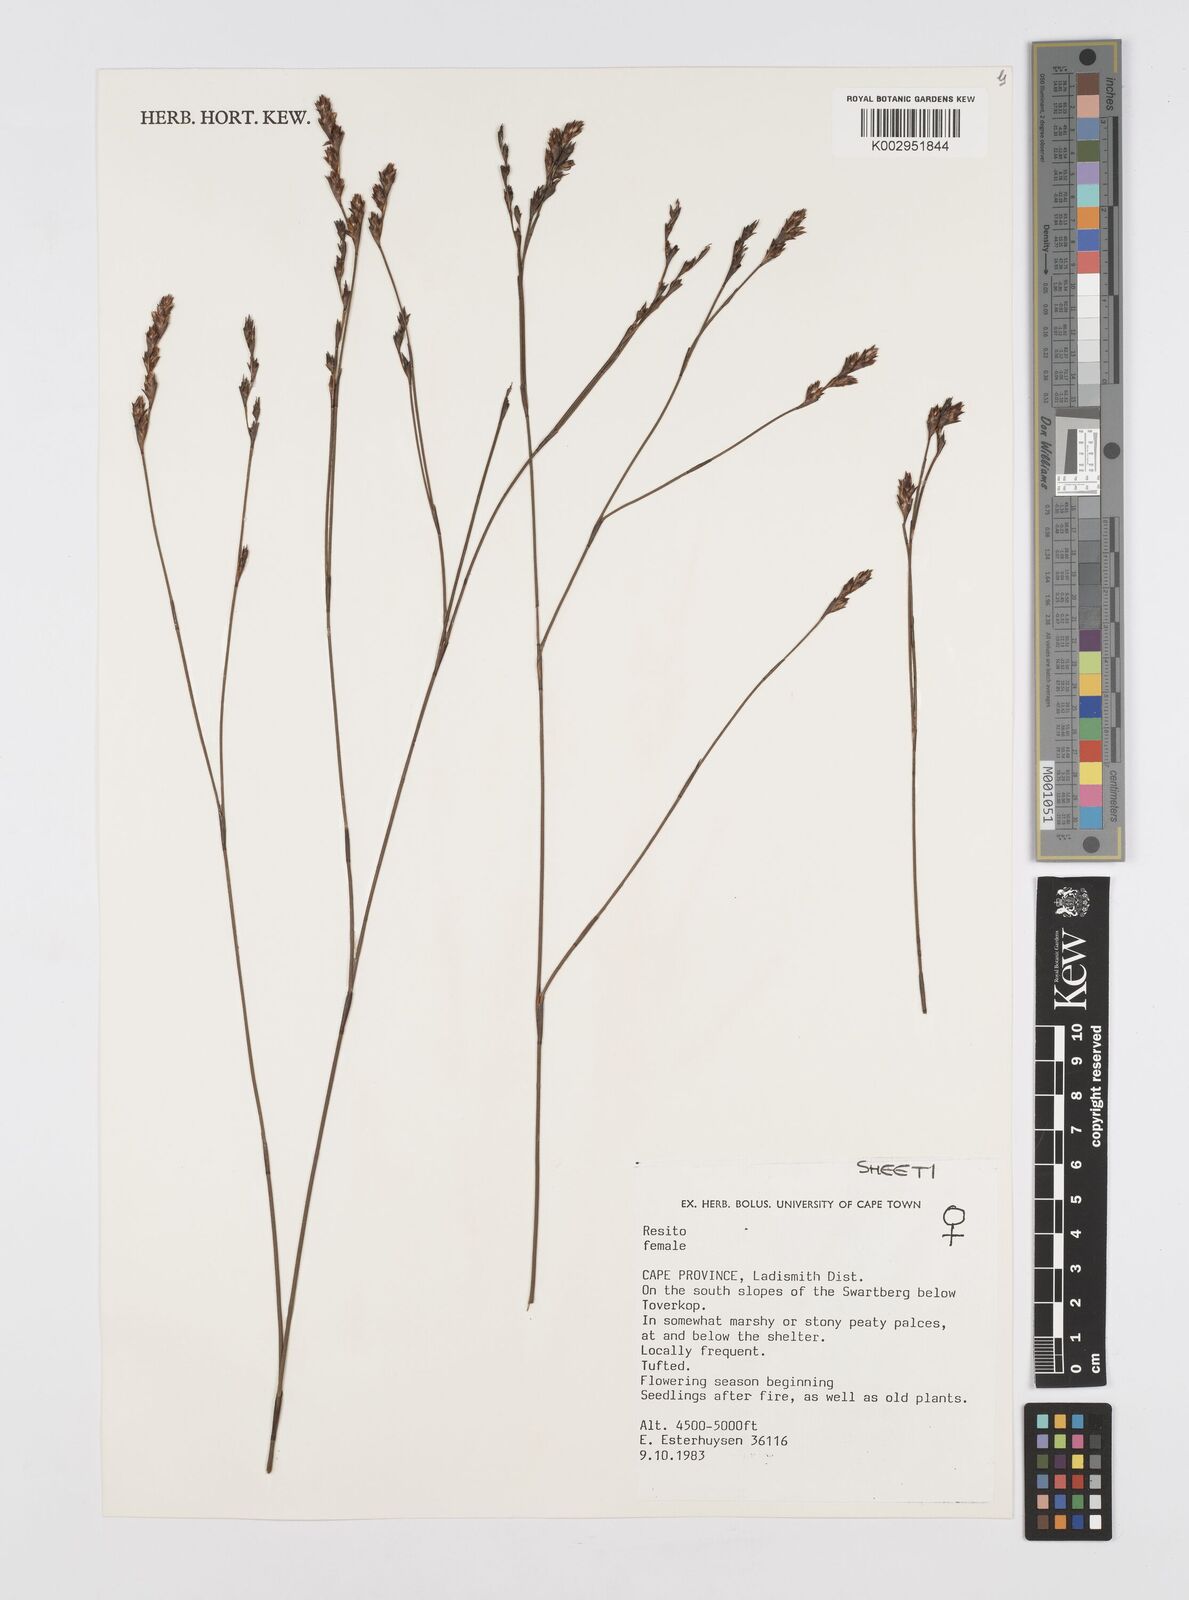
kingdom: Plantae
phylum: Tracheophyta
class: Liliopsida
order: Poales
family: Restionaceae
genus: Restio
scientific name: Restio
